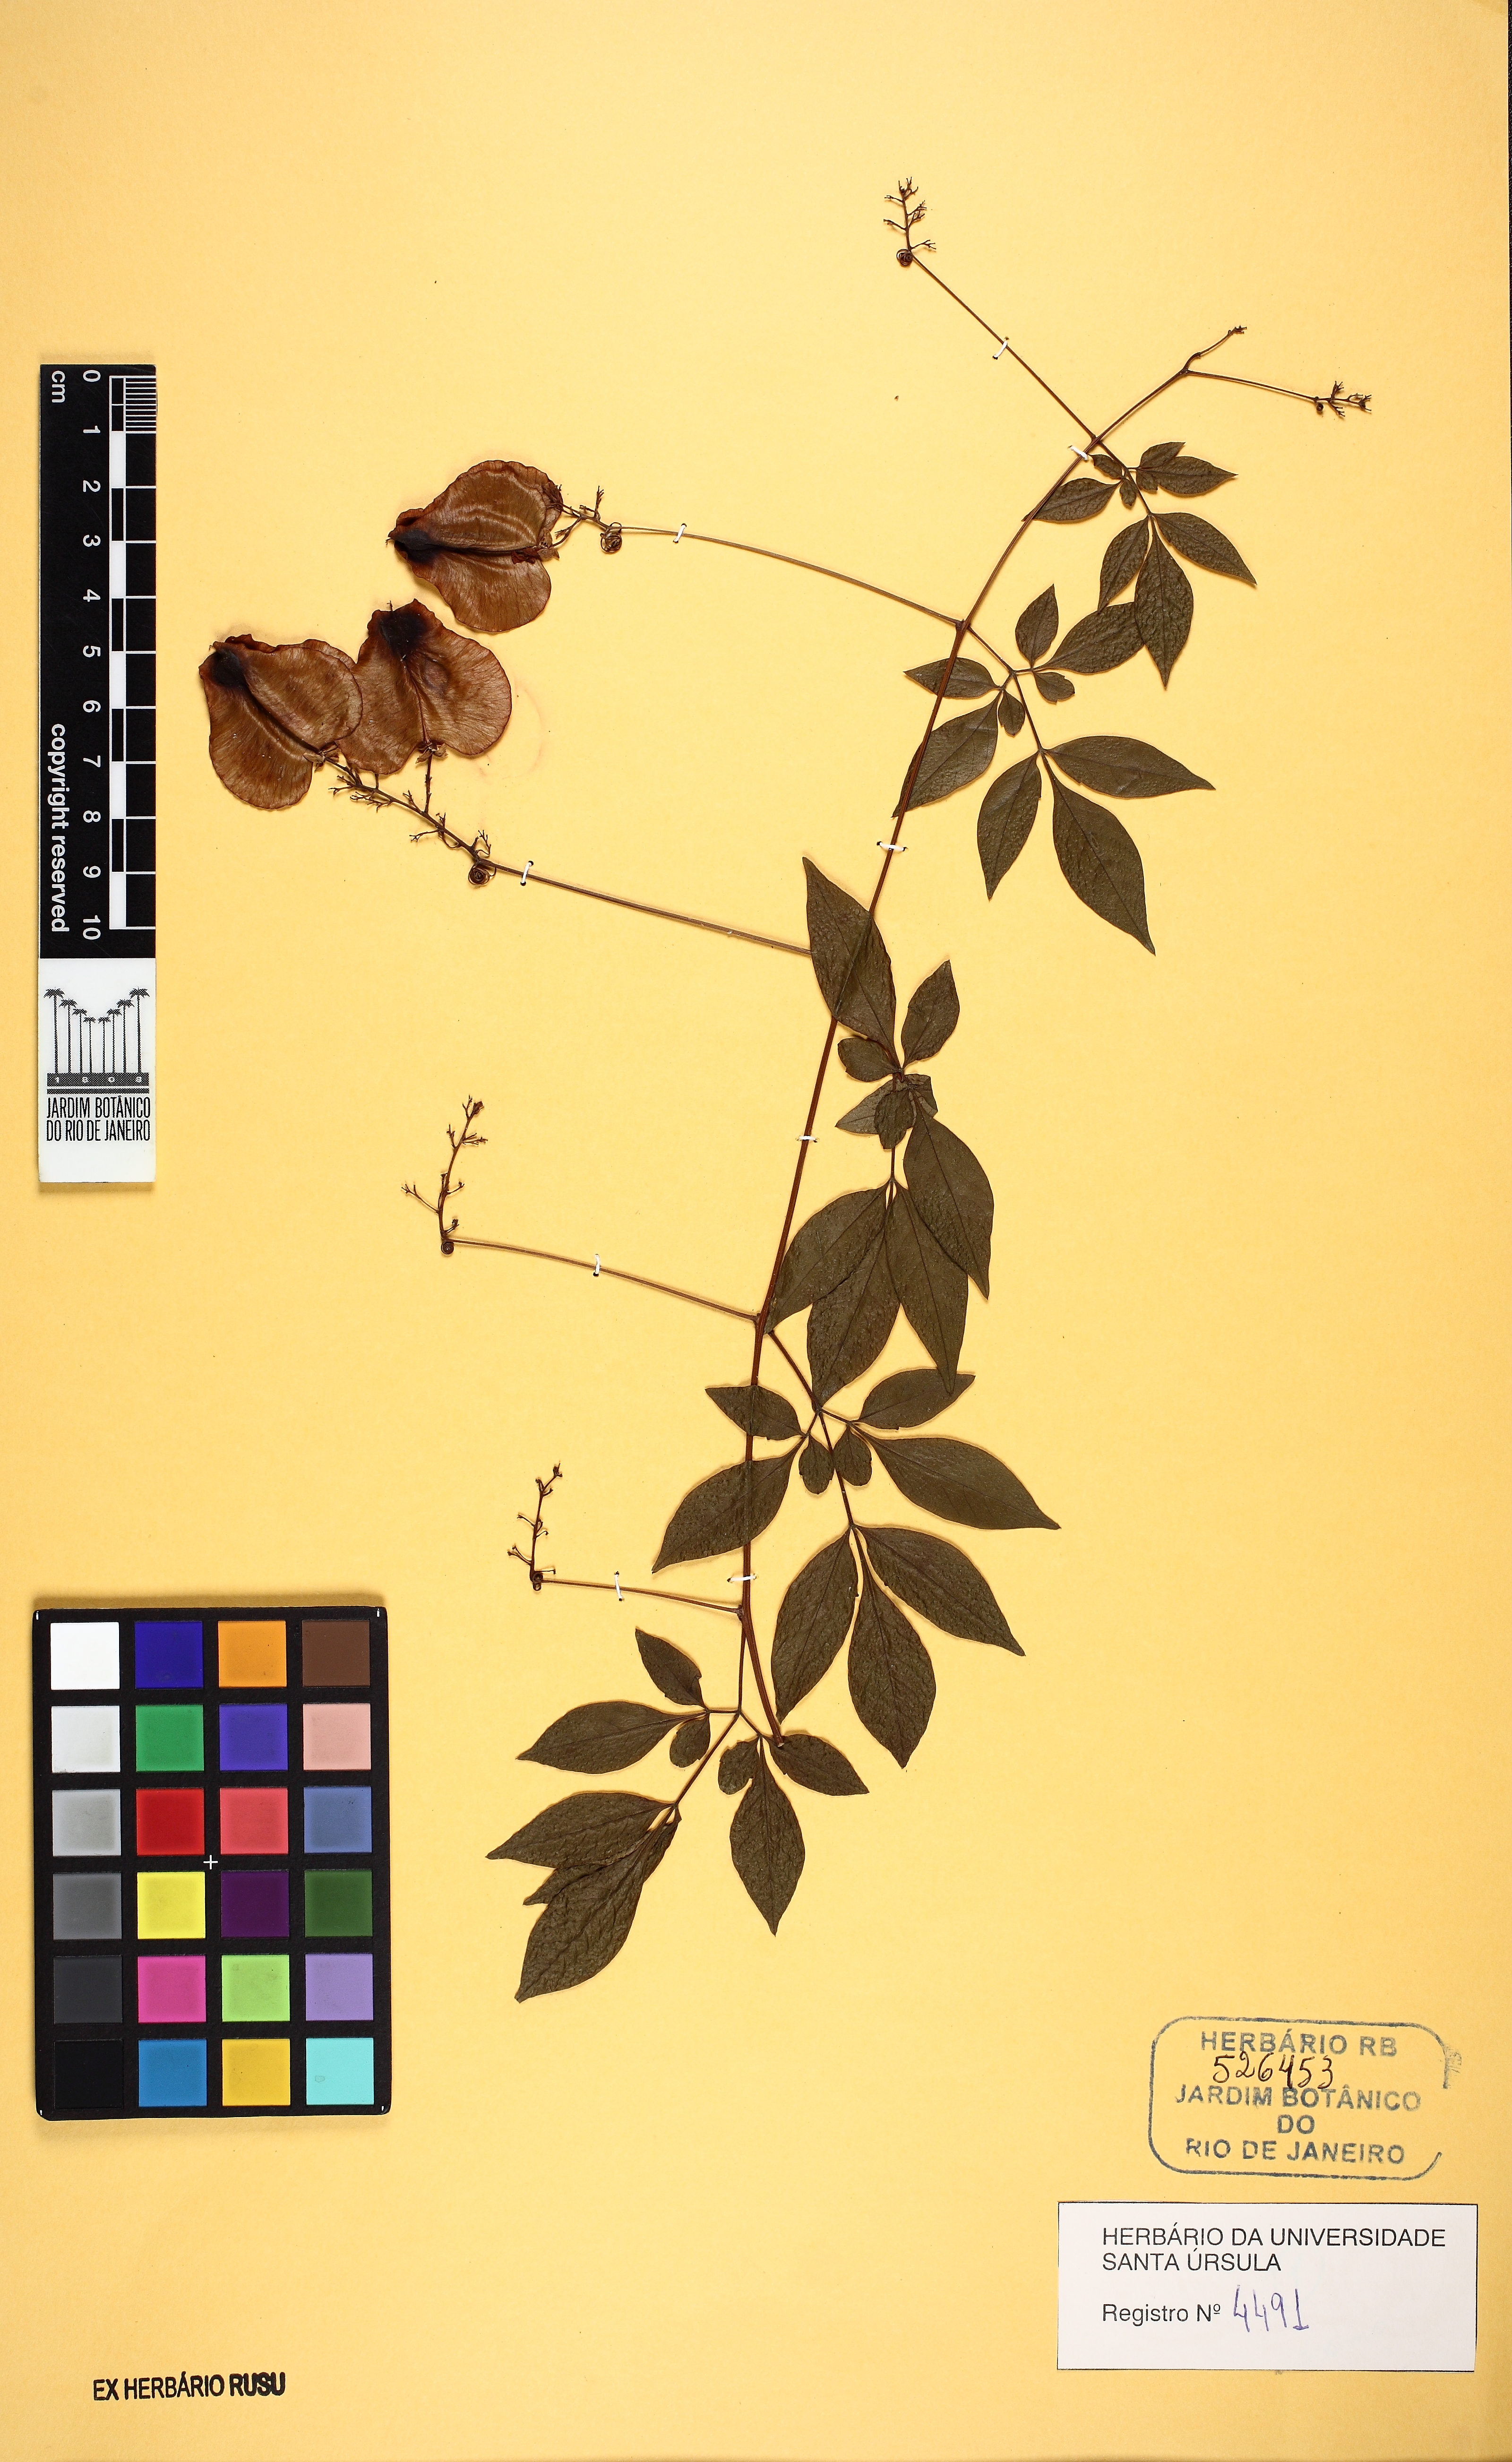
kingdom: Plantae
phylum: Tracheophyta
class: Magnoliopsida
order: Sapindales
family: Sapindaceae
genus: Serjania
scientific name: Serjania corrugata
